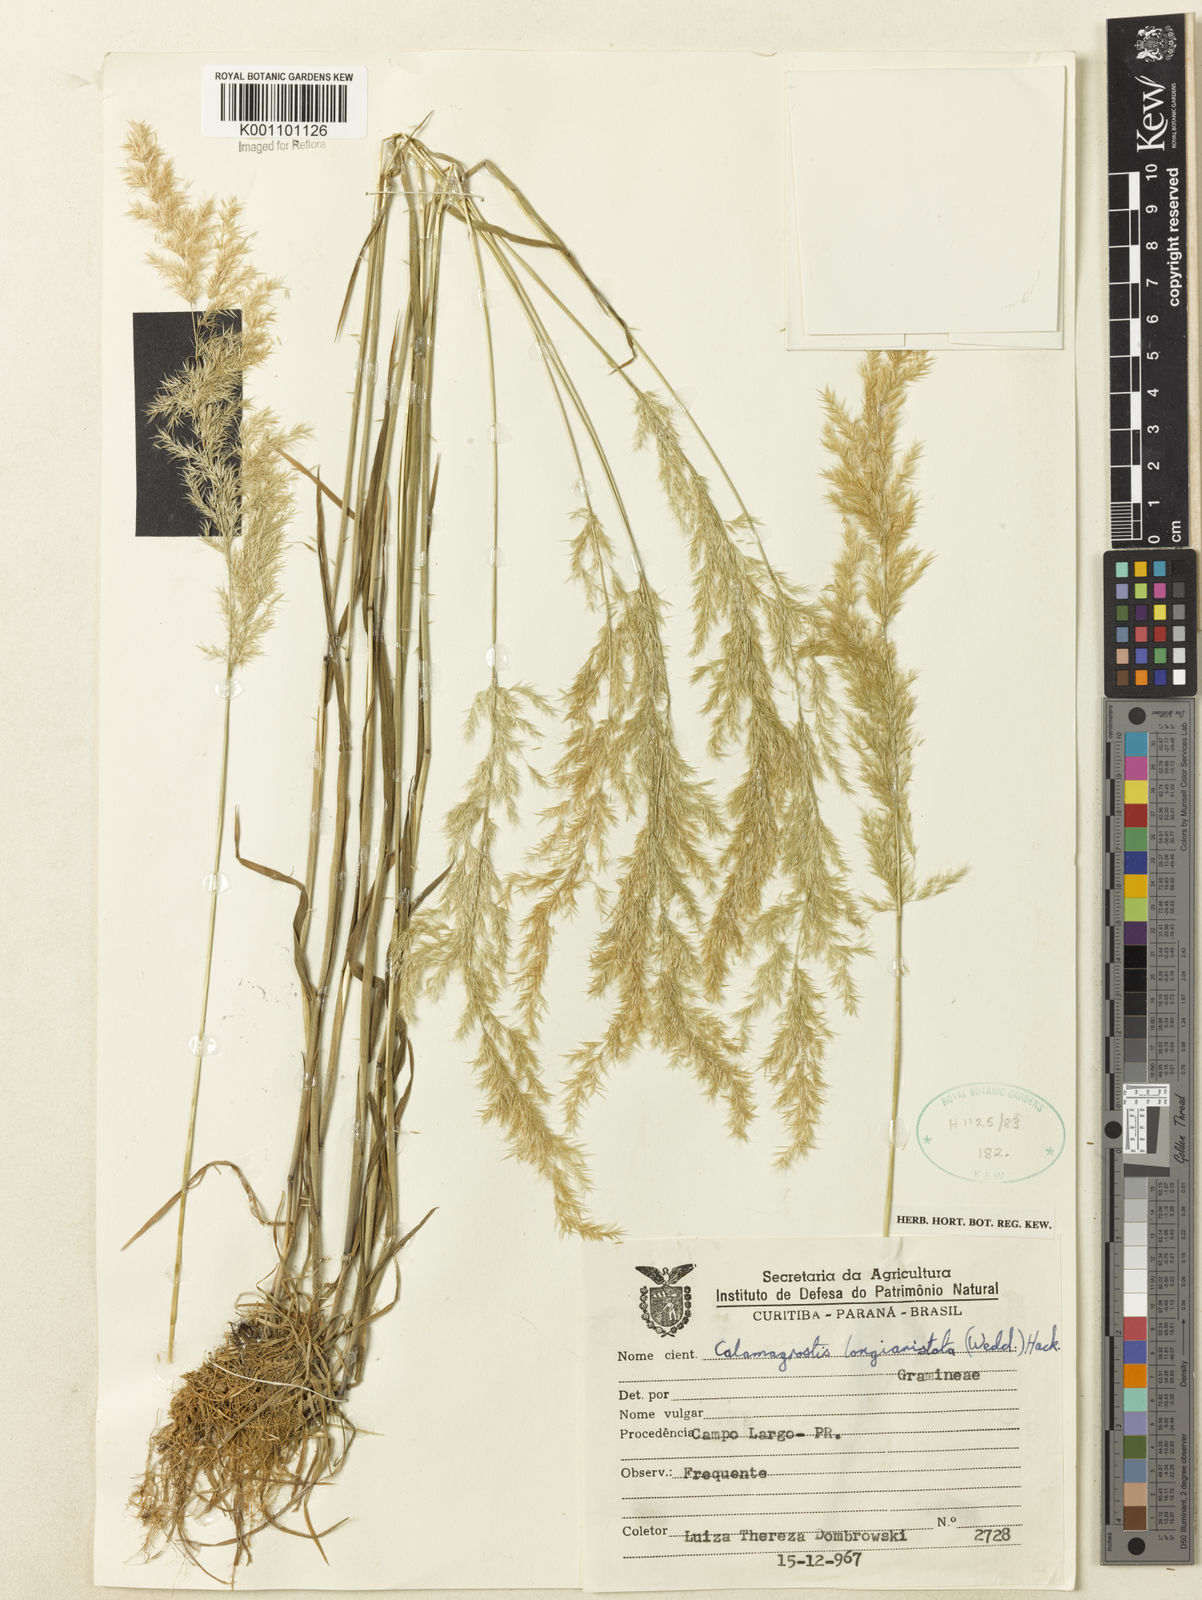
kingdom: Plantae
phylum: Tracheophyta
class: Liliopsida
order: Poales
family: Poaceae
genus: Cinnagrostis
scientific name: Cinnagrostis rupestris
